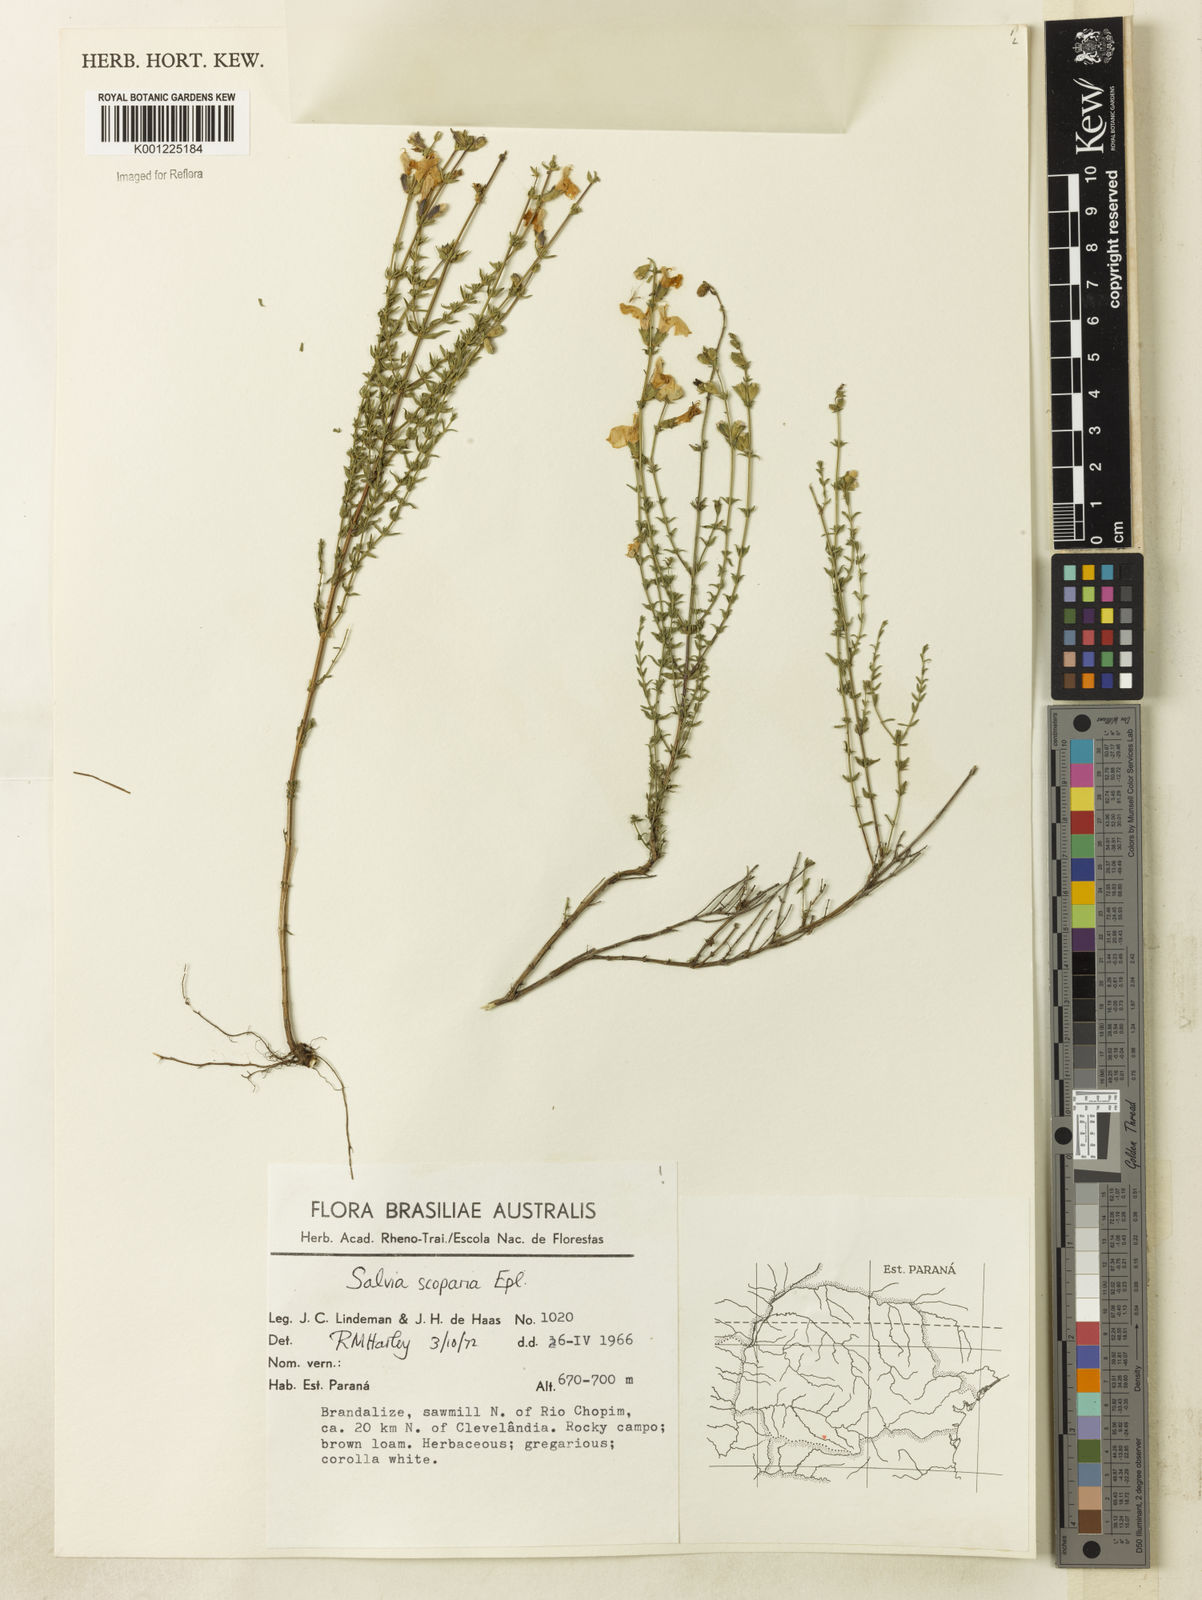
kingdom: Plantae
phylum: Tracheophyta
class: Magnoliopsida
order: Lamiales
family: Lamiaceae
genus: Salvia
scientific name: Salvia scoparia
